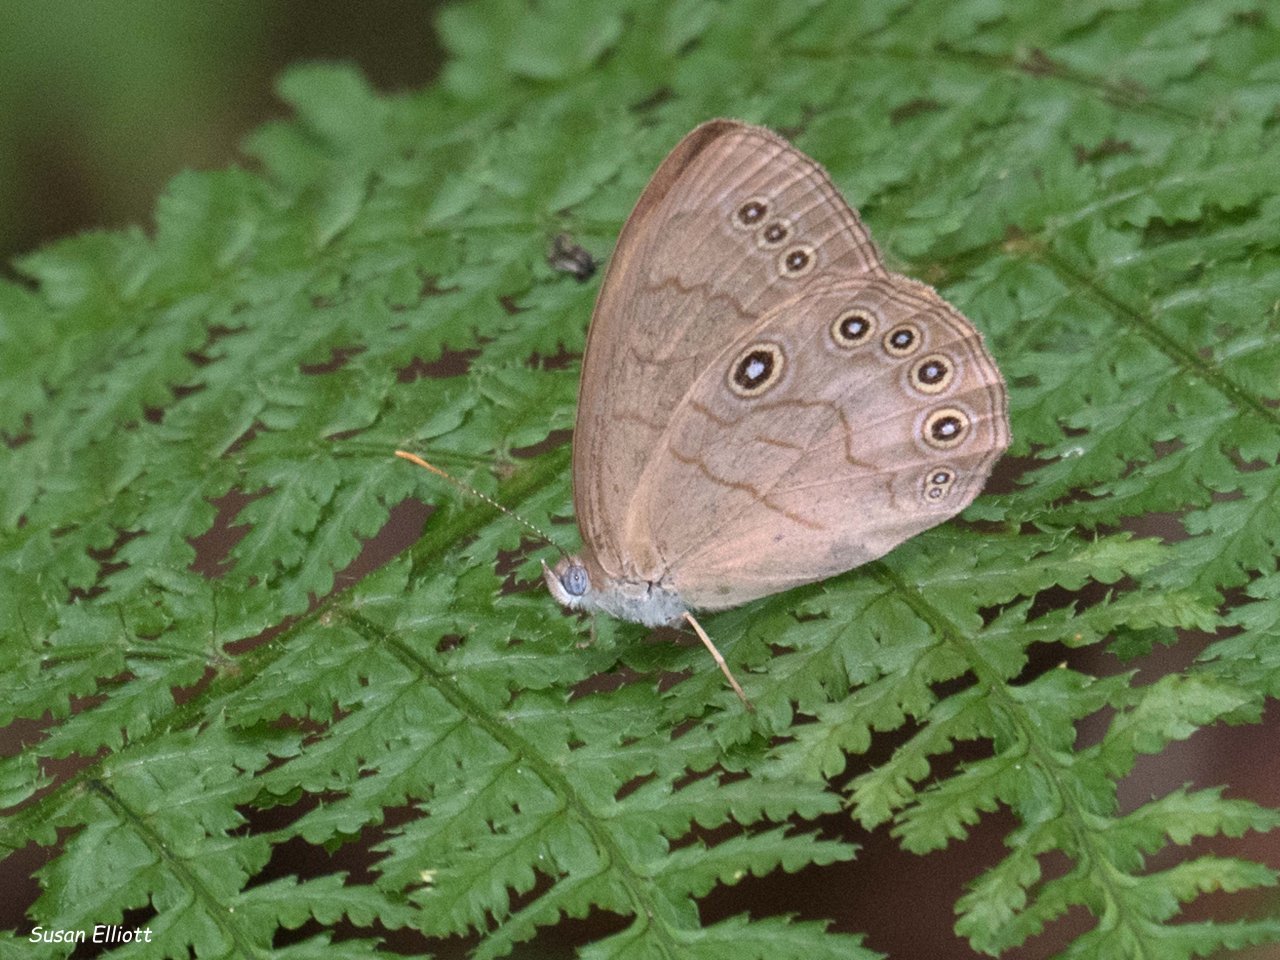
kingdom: Animalia
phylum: Arthropoda
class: Insecta
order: Lepidoptera
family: Nymphalidae
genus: Lethe
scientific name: Lethe eurydice
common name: Appalachian Eyed Brown
